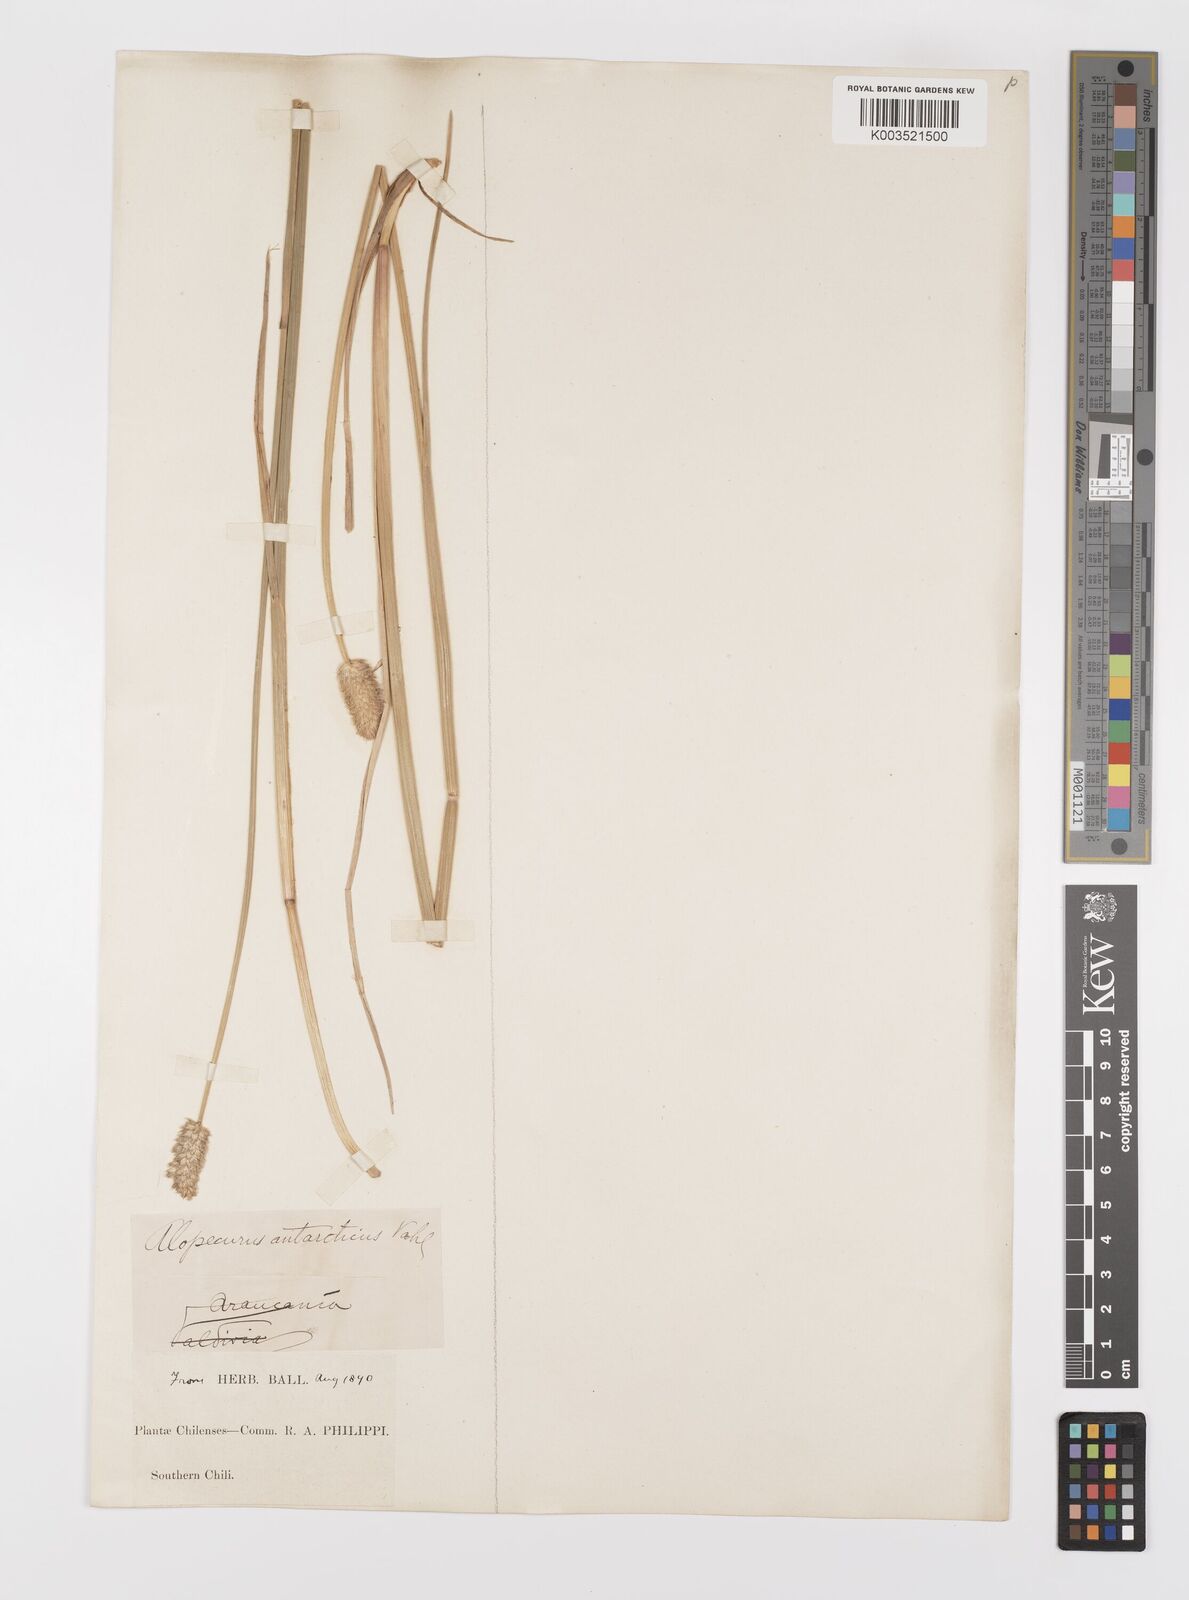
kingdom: Plantae
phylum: Tracheophyta
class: Liliopsida
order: Poales
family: Poaceae
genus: Alopecurus
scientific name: Alopecurus magellanicus
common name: Alpine foxtail
